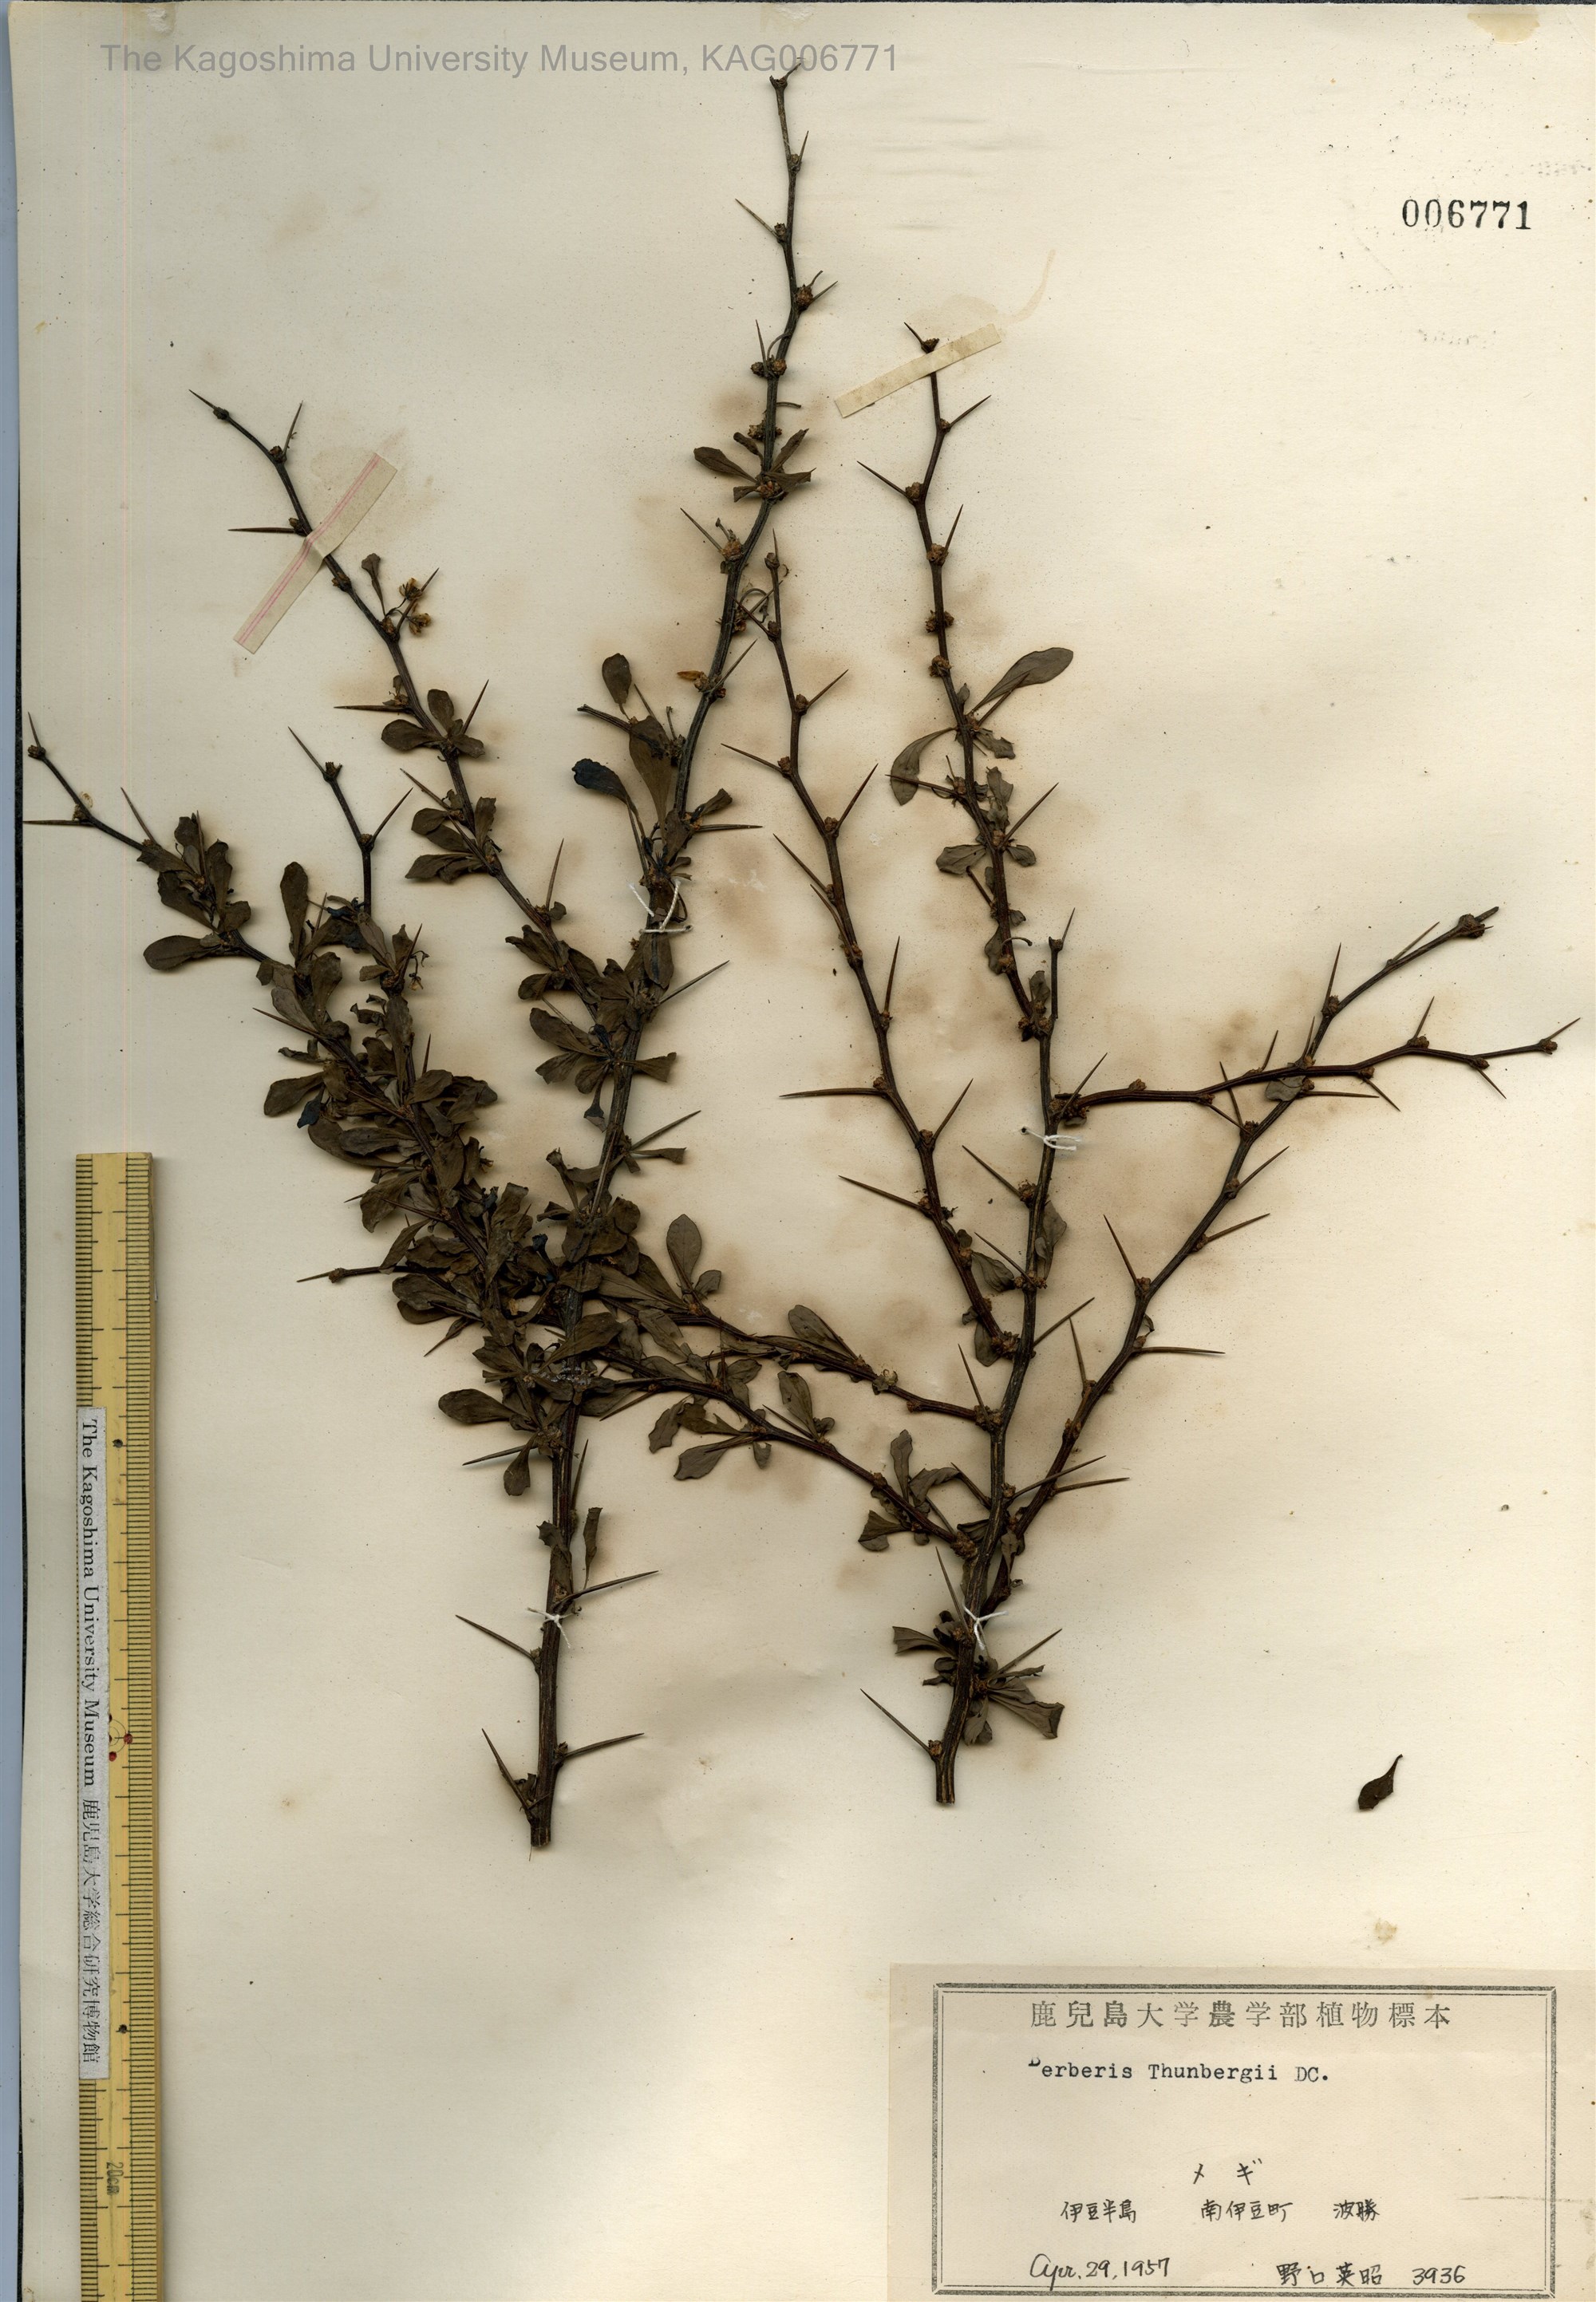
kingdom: Plantae
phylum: Tracheophyta
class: Magnoliopsida
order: Ranunculales
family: Berberidaceae
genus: Berberis
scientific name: Berberis thunbergii
